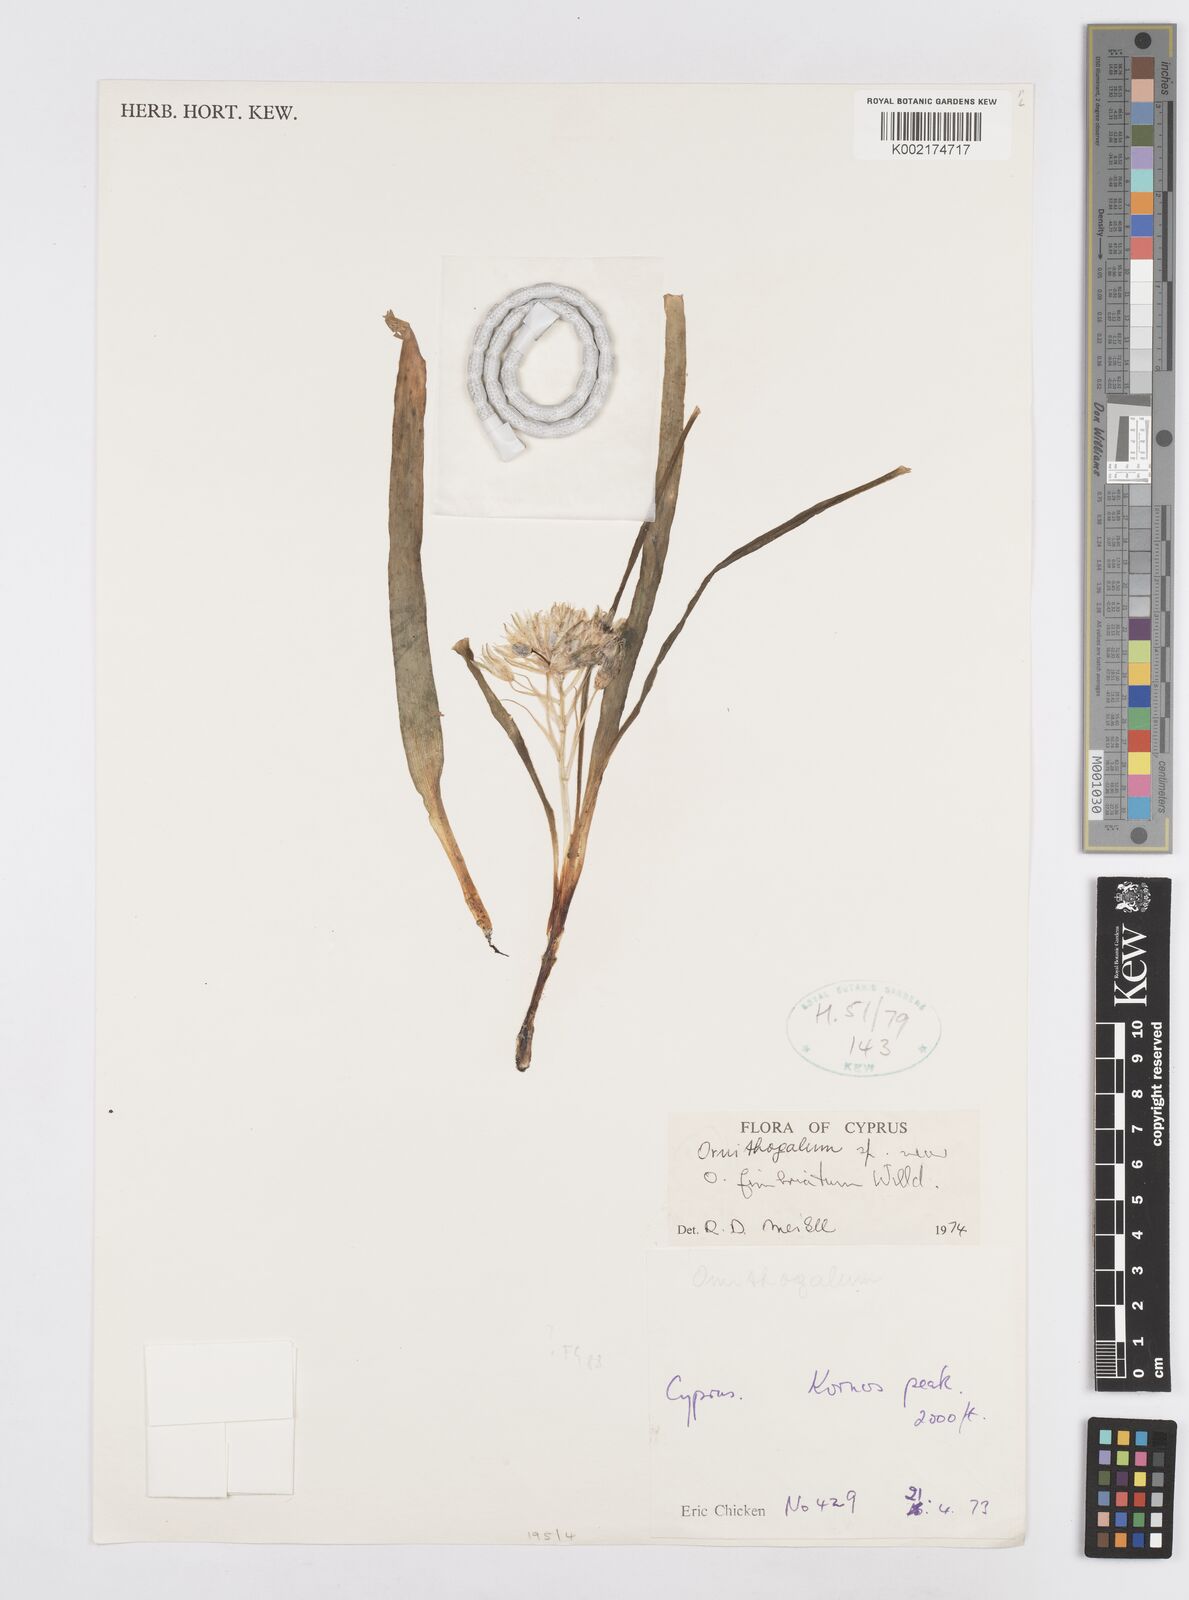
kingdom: Plantae
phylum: Tracheophyta
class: Liliopsida
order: Asparagales
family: Asparagaceae
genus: Ornithogalum
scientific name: Ornithogalum fimbriatum
